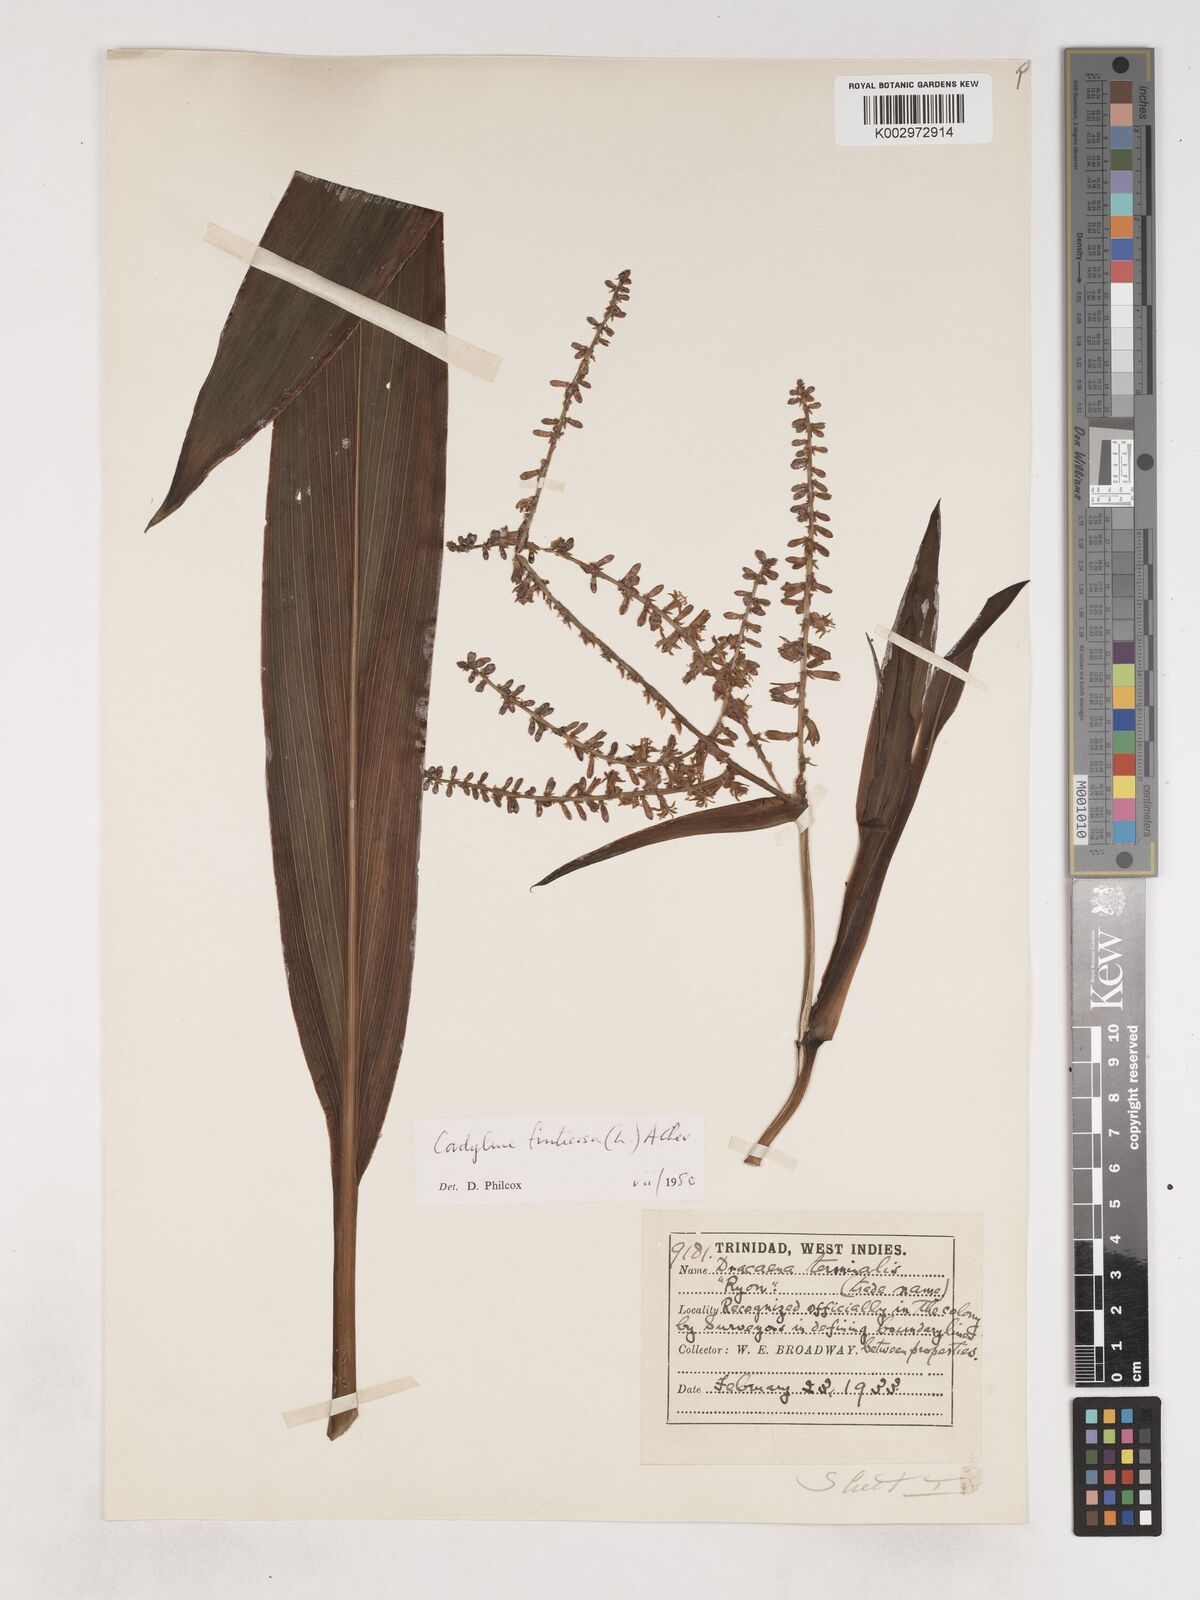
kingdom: Plantae
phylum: Tracheophyta
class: Liliopsida
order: Asparagales
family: Asparagaceae
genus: Cordyline
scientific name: Cordyline fruticosa
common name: Good-luck-plant
